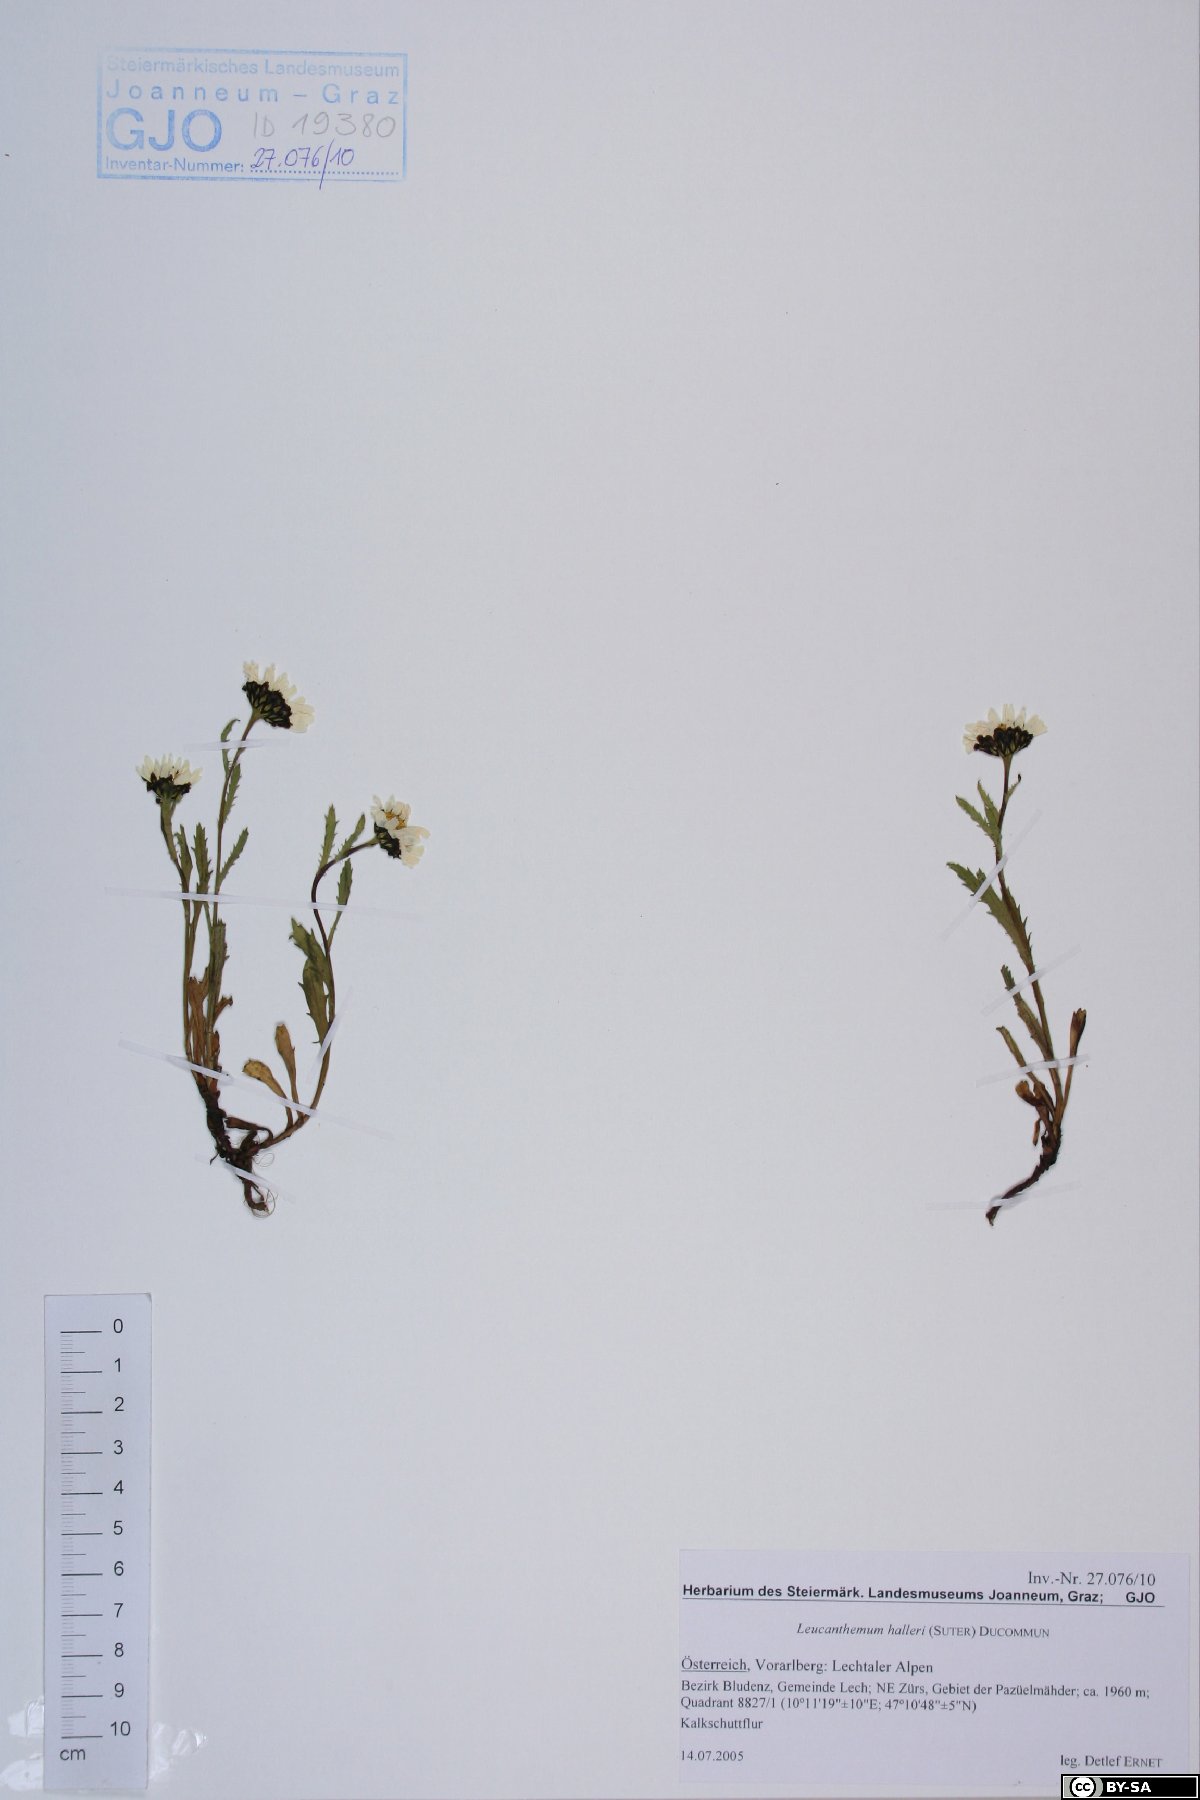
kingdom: Plantae
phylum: Tracheophyta
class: Magnoliopsida
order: Asterales
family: Asteraceae
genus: Leucanthemum
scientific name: Leucanthemum halleri
